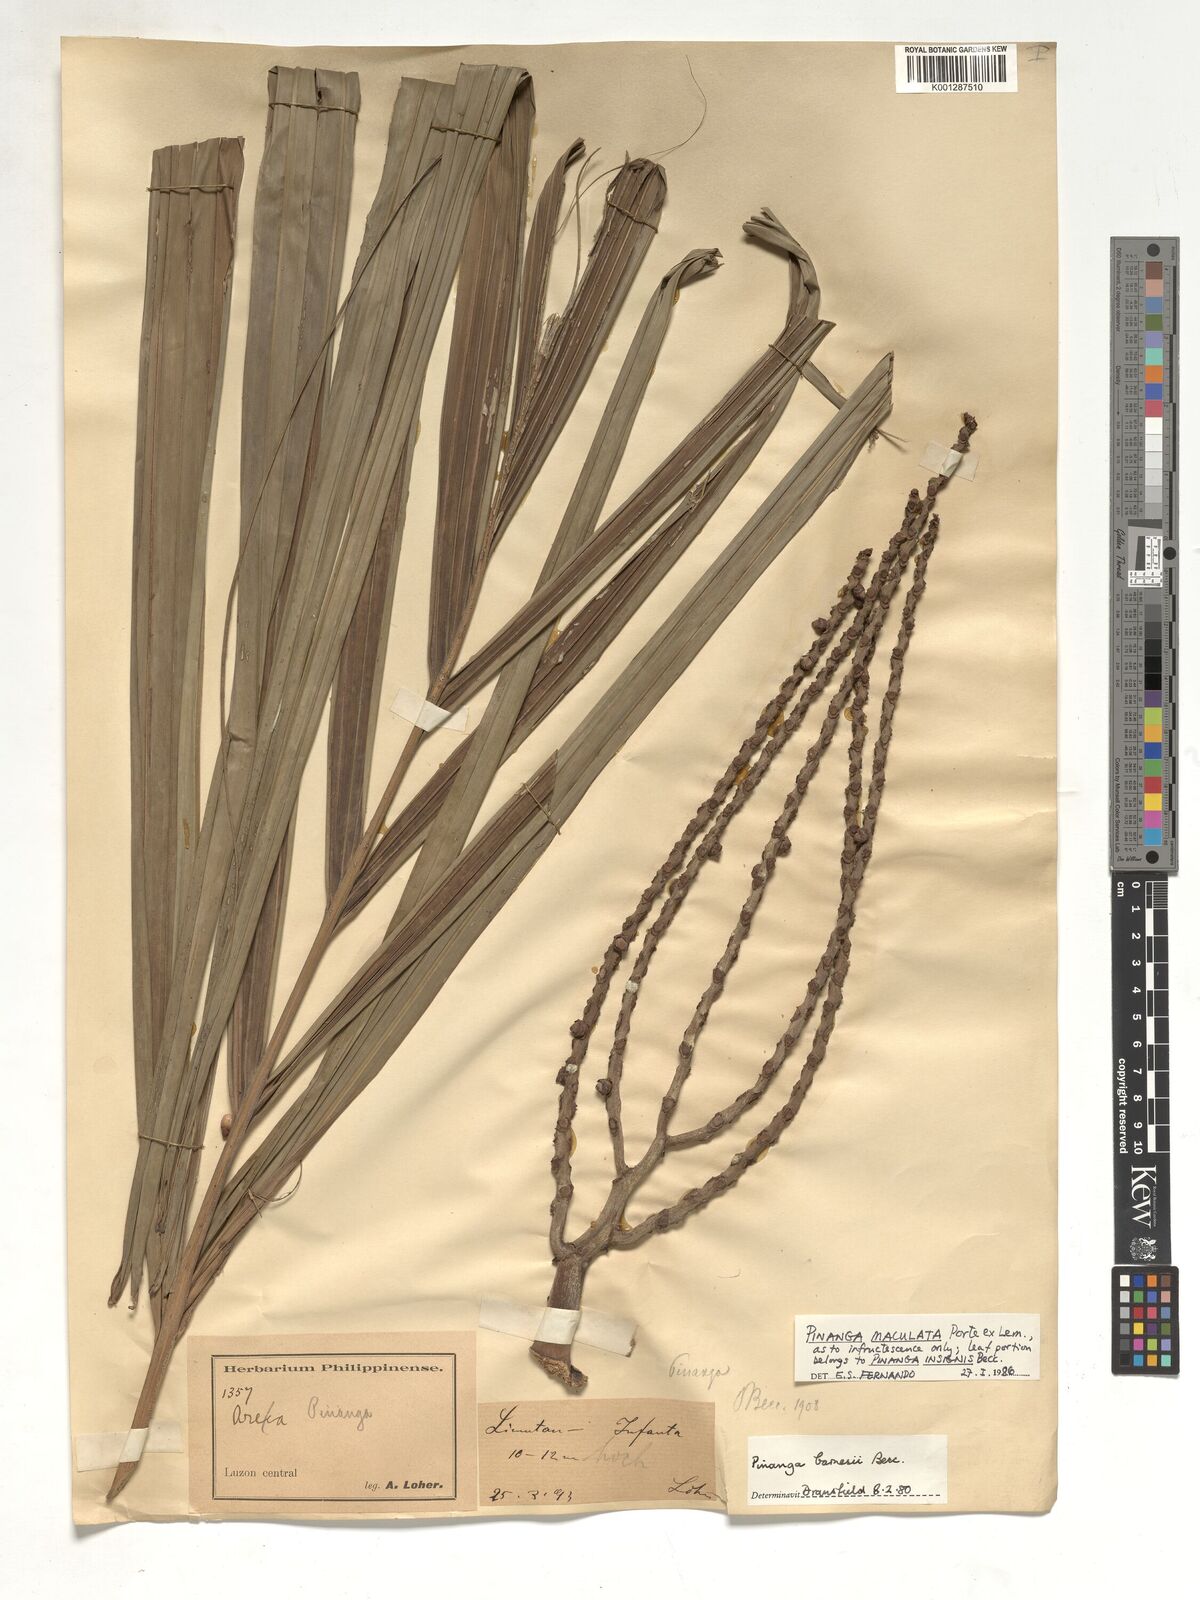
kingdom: Plantae
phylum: Tracheophyta
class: Liliopsida
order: Arecales
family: Arecaceae
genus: Pinanga
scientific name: Pinanga maculata
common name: Tiger palm
